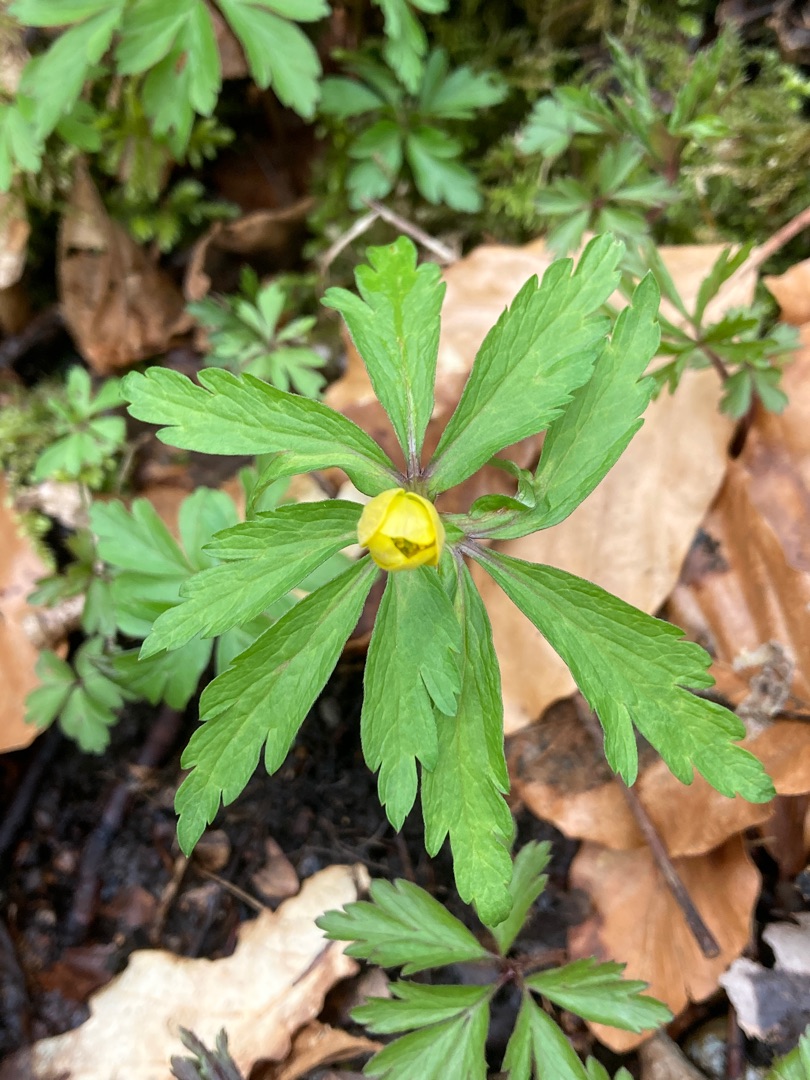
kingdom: Plantae
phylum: Tracheophyta
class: Magnoliopsida
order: Ranunculales
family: Ranunculaceae
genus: Anemone
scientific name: Anemone ranunculoides
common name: Gul anemone
